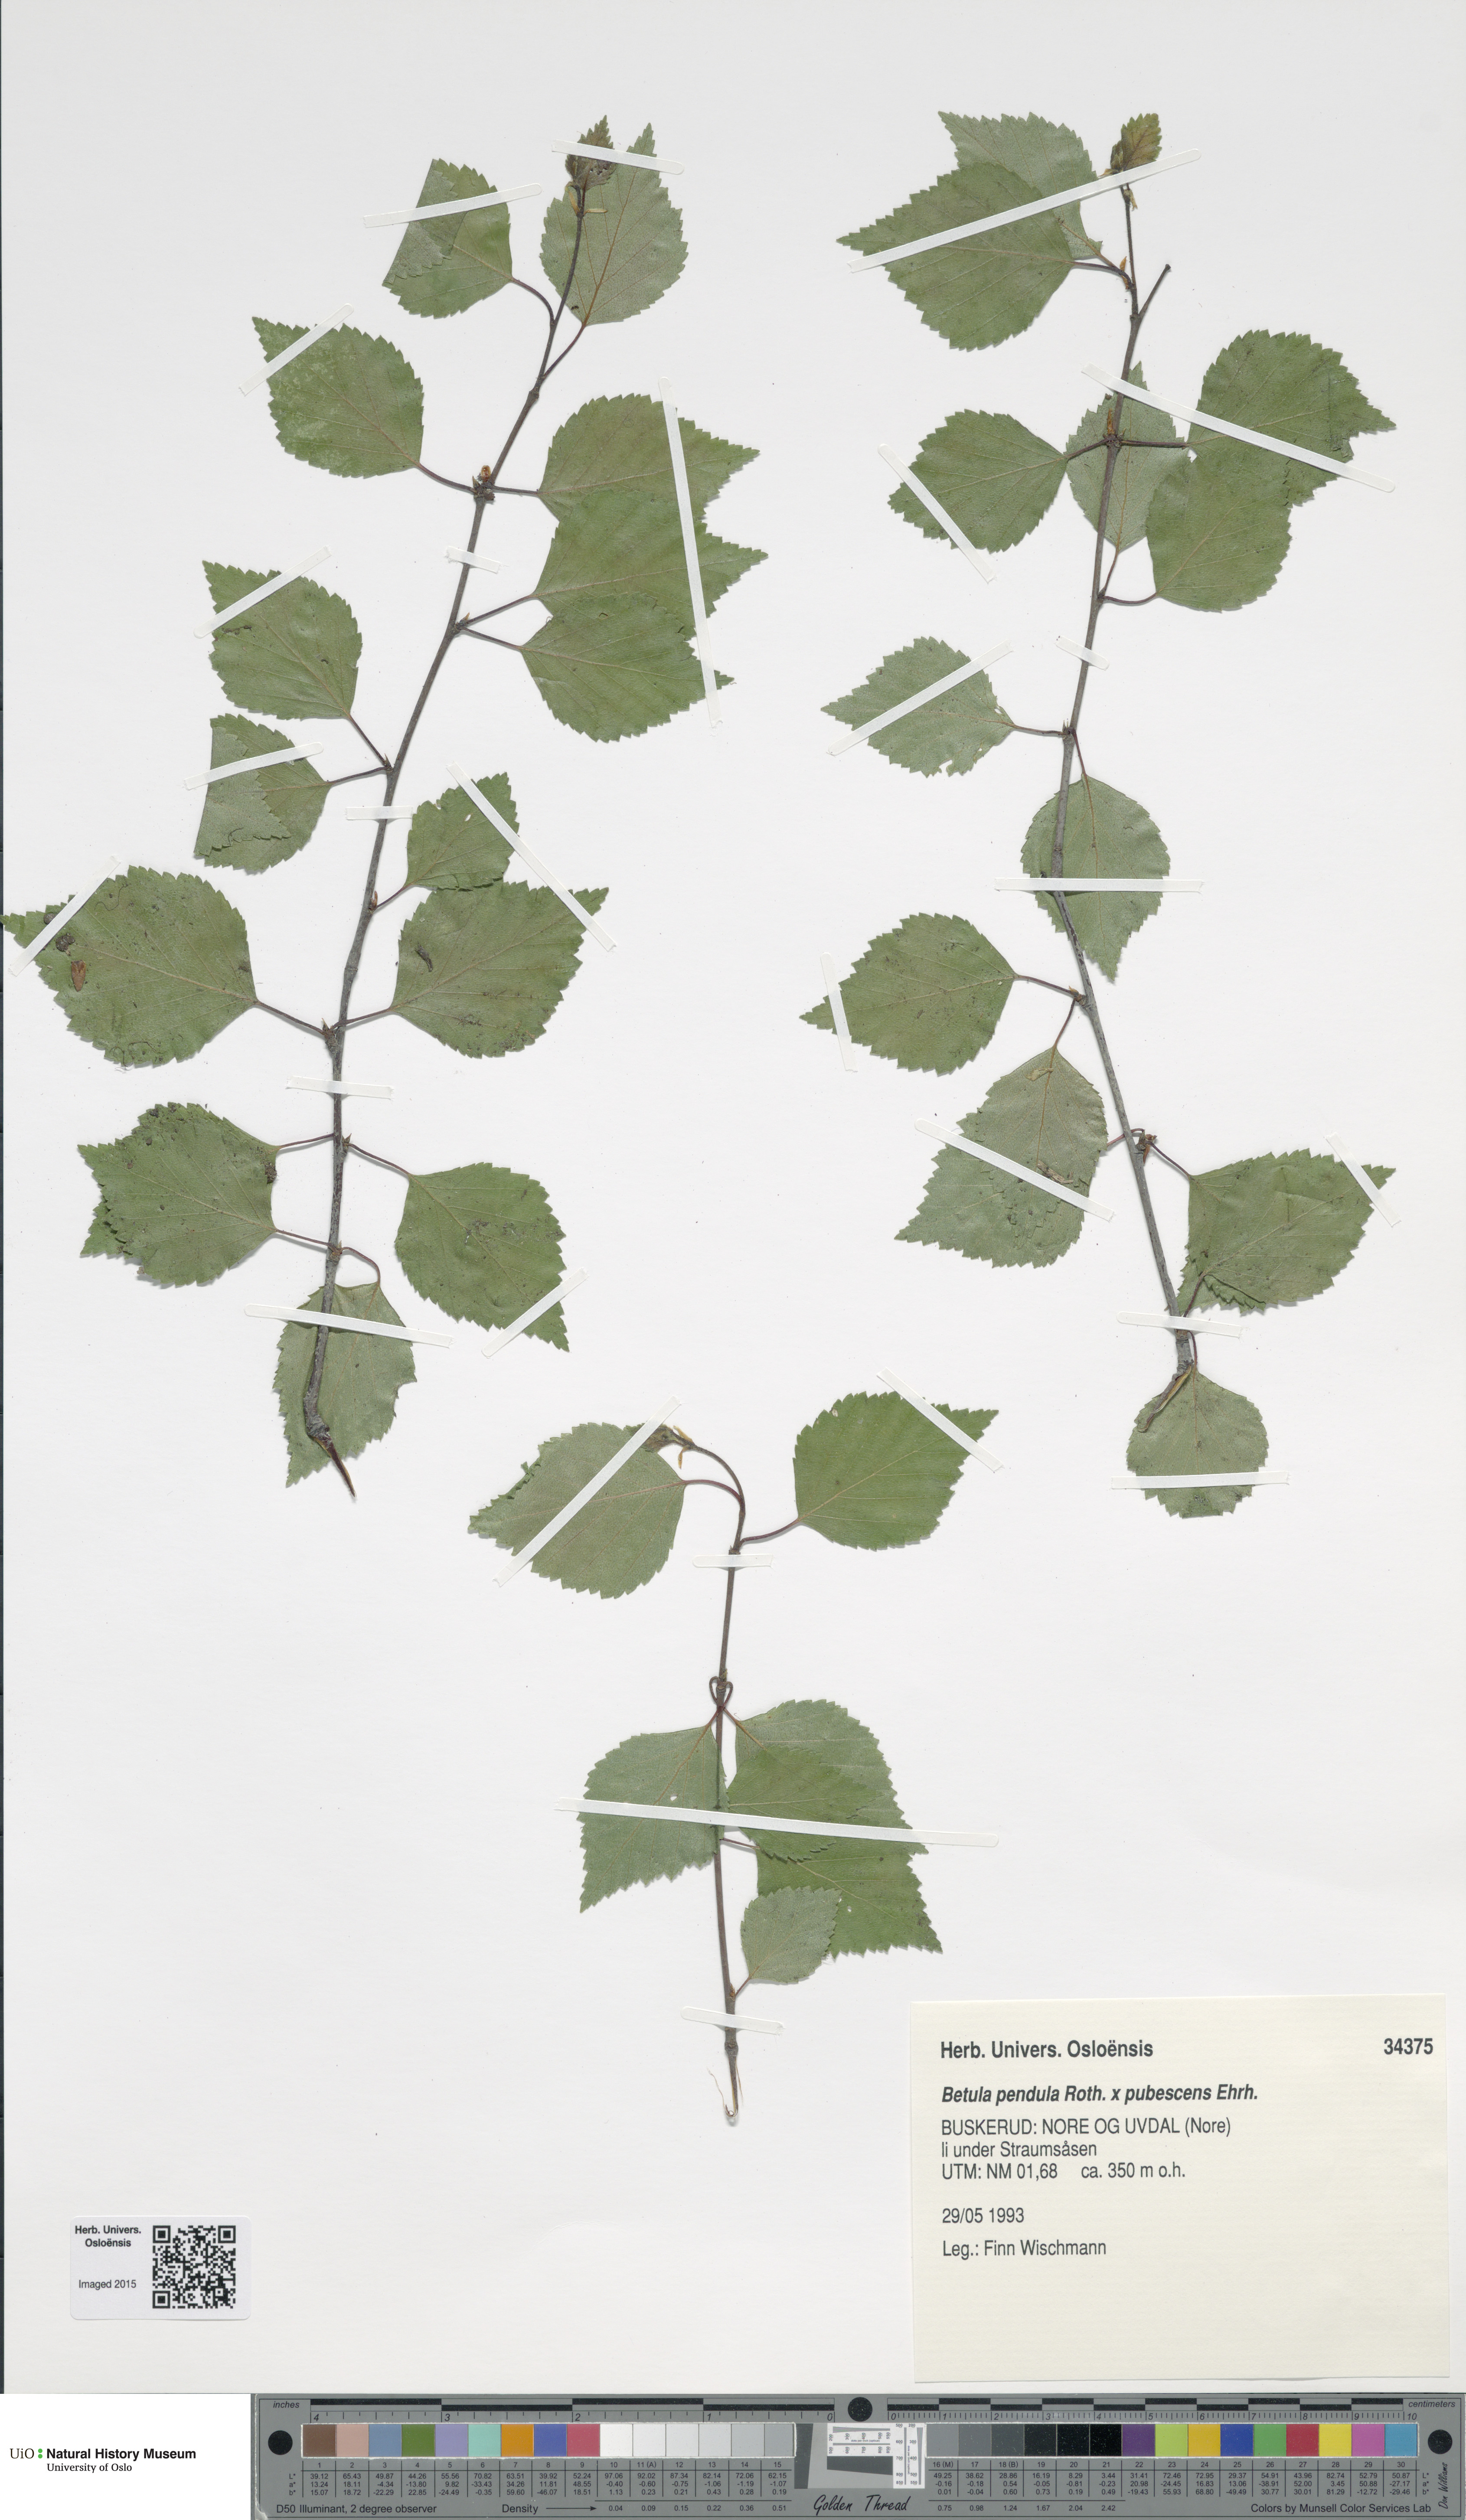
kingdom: Plantae
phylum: Tracheophyta
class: Magnoliopsida
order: Fagales
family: Betulaceae
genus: Betula
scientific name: Betula
